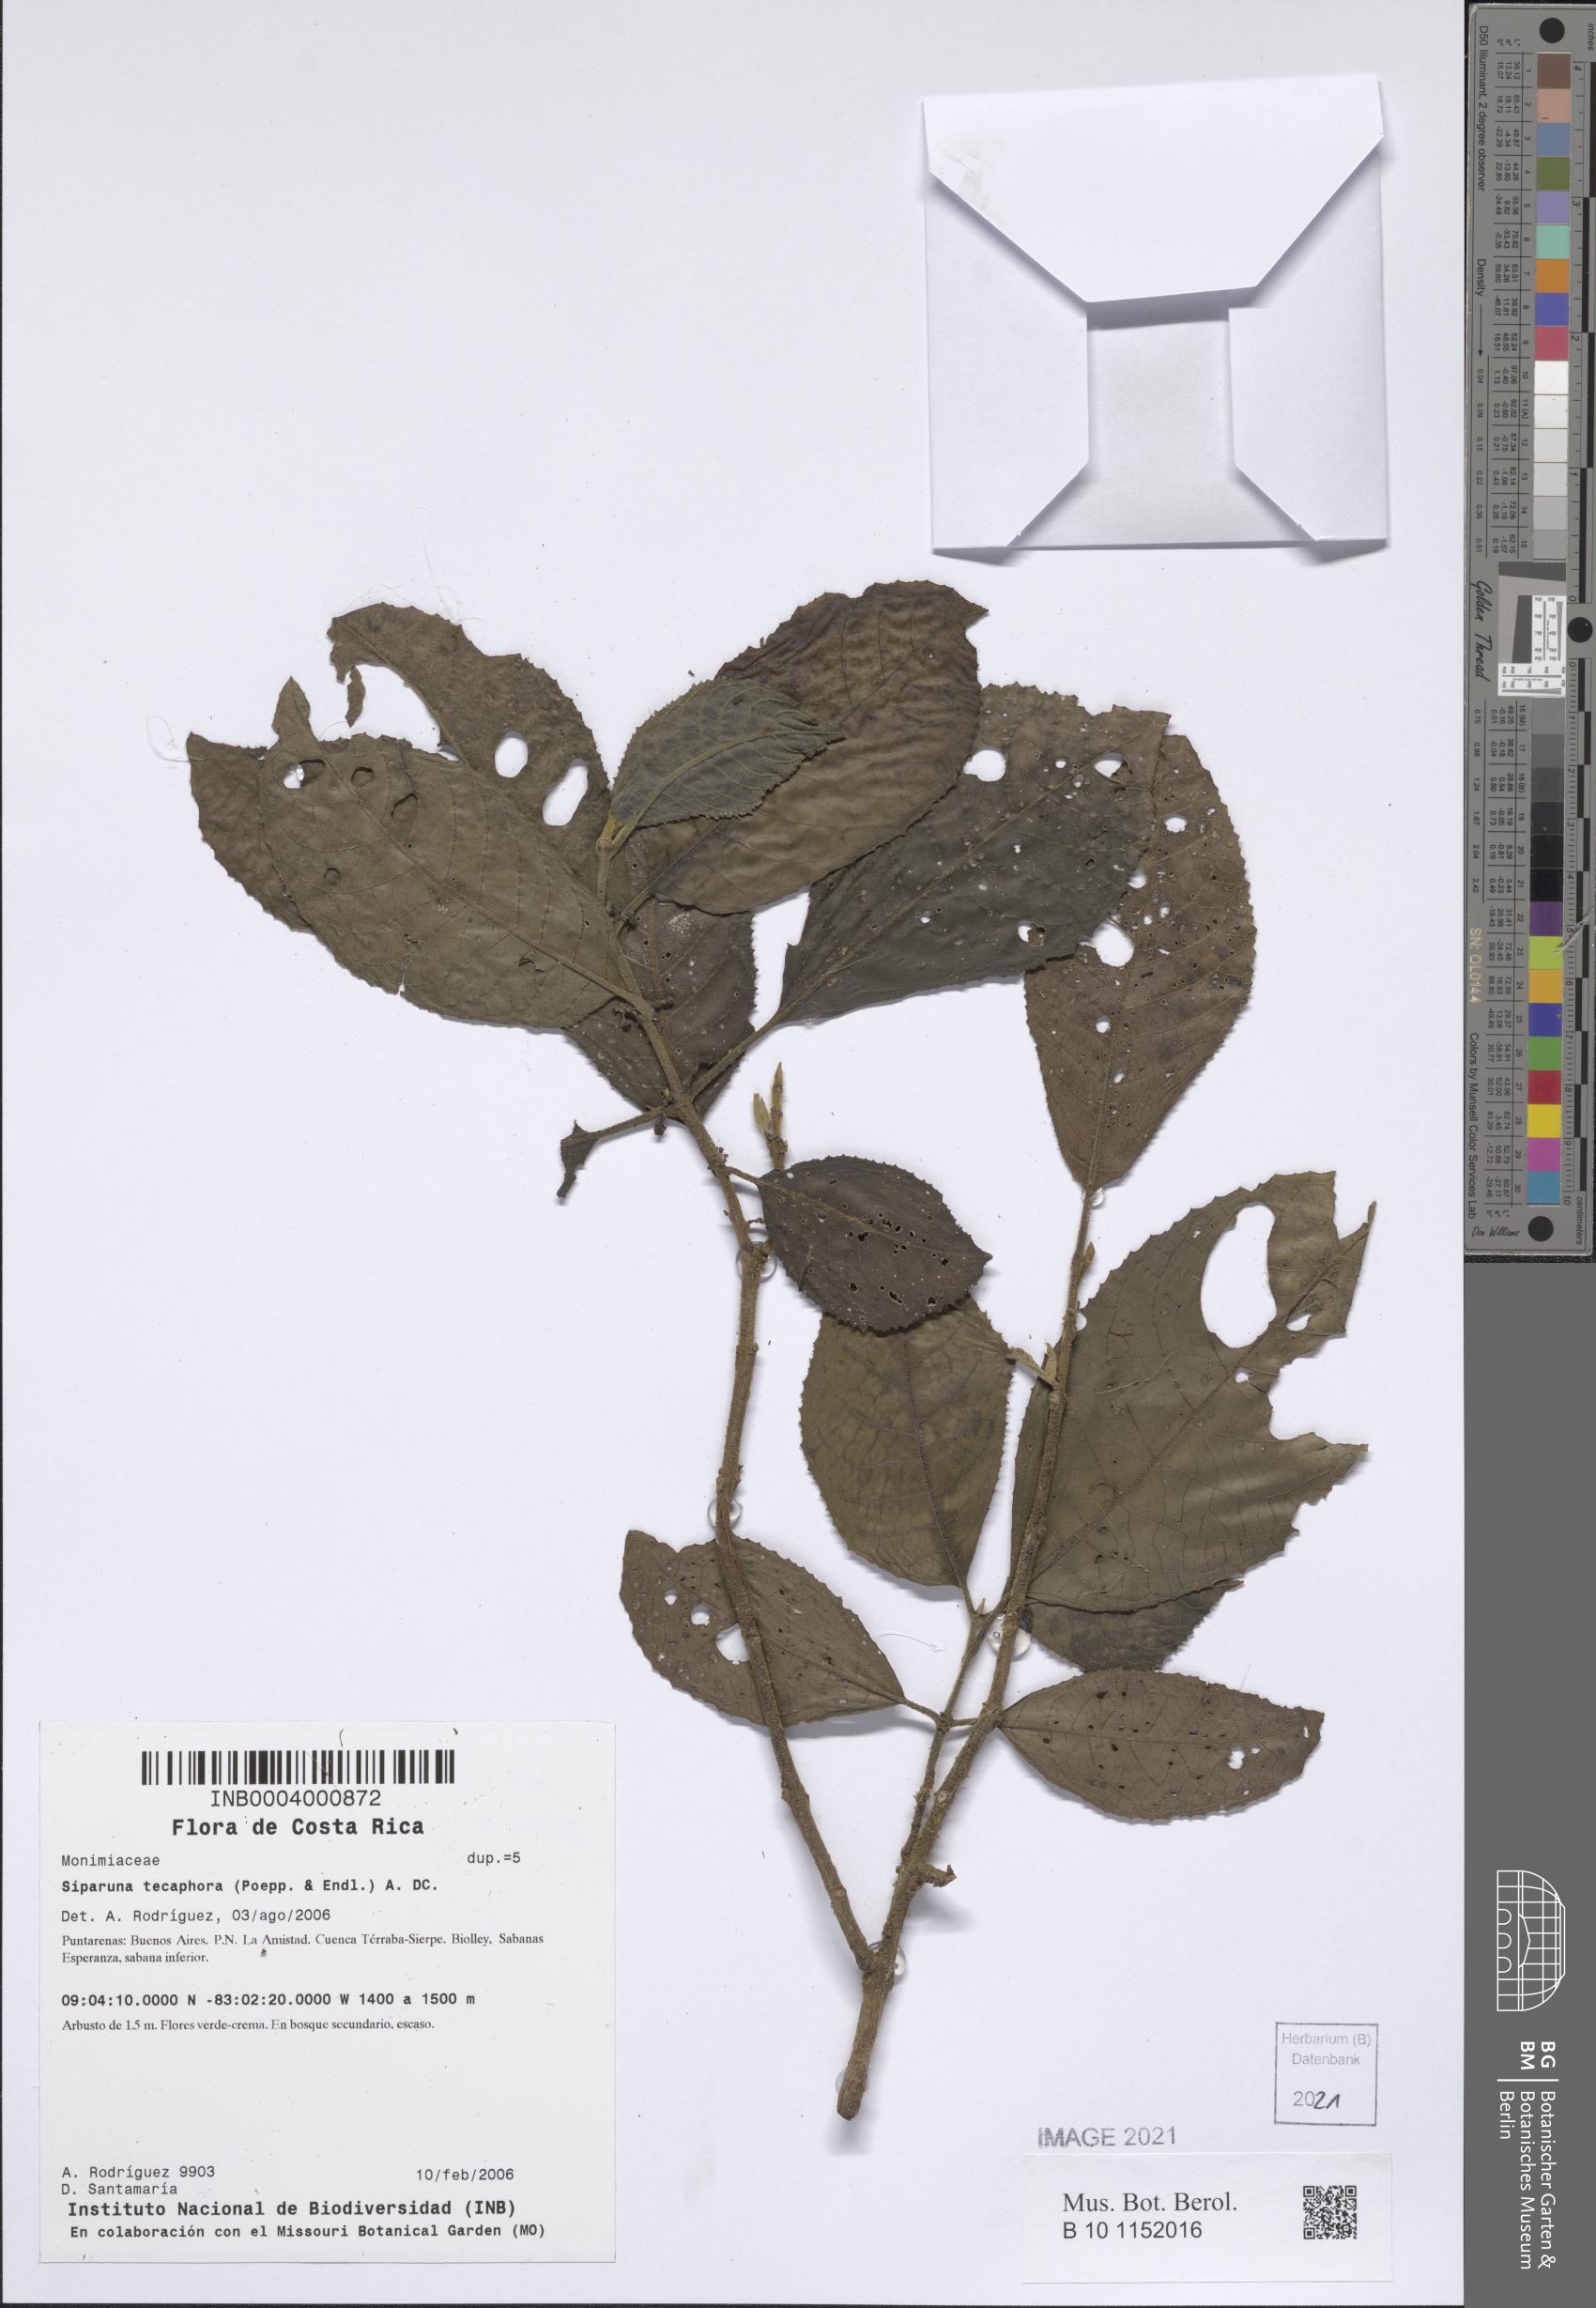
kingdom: Plantae
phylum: Tracheophyta
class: Magnoliopsida
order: Laurales
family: Siparunaceae
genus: Siparuna
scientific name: Siparuna thecaphora
